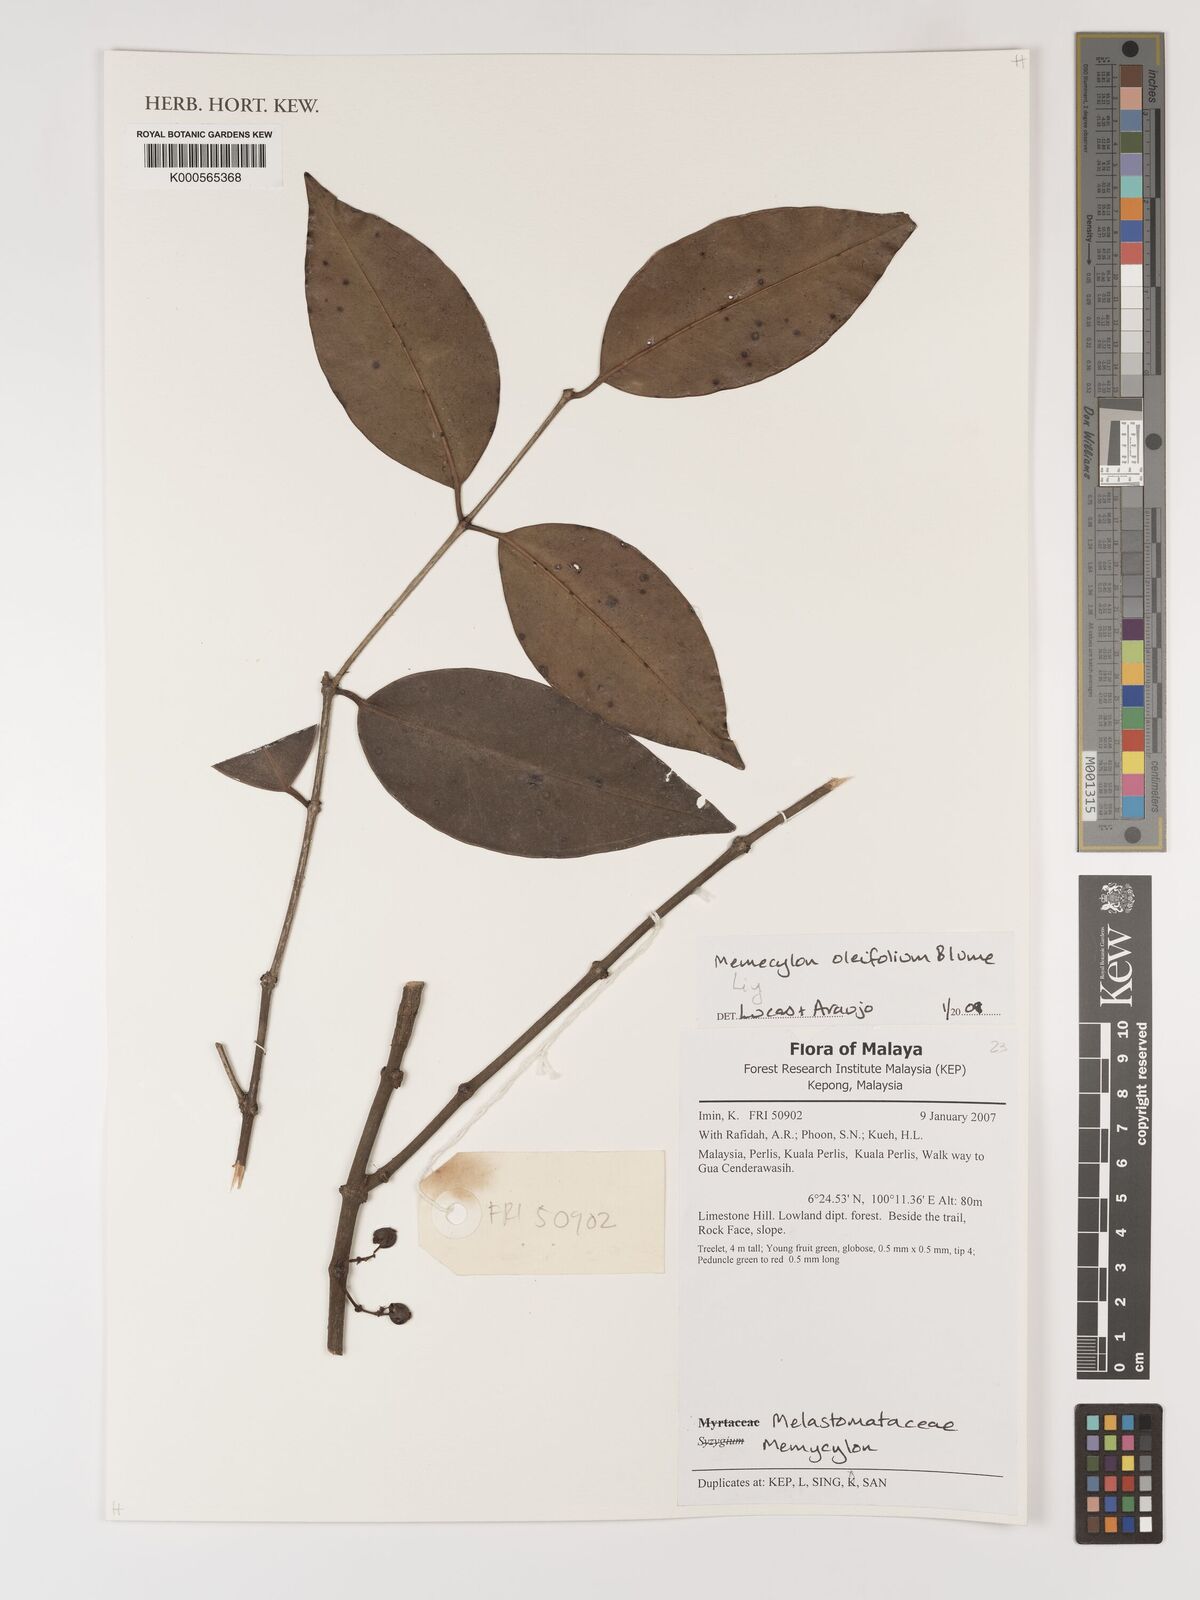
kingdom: Plantae
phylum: Tracheophyta
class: Magnoliopsida
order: Myrtales
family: Melastomataceae
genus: Memecylon
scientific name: Memecylon
